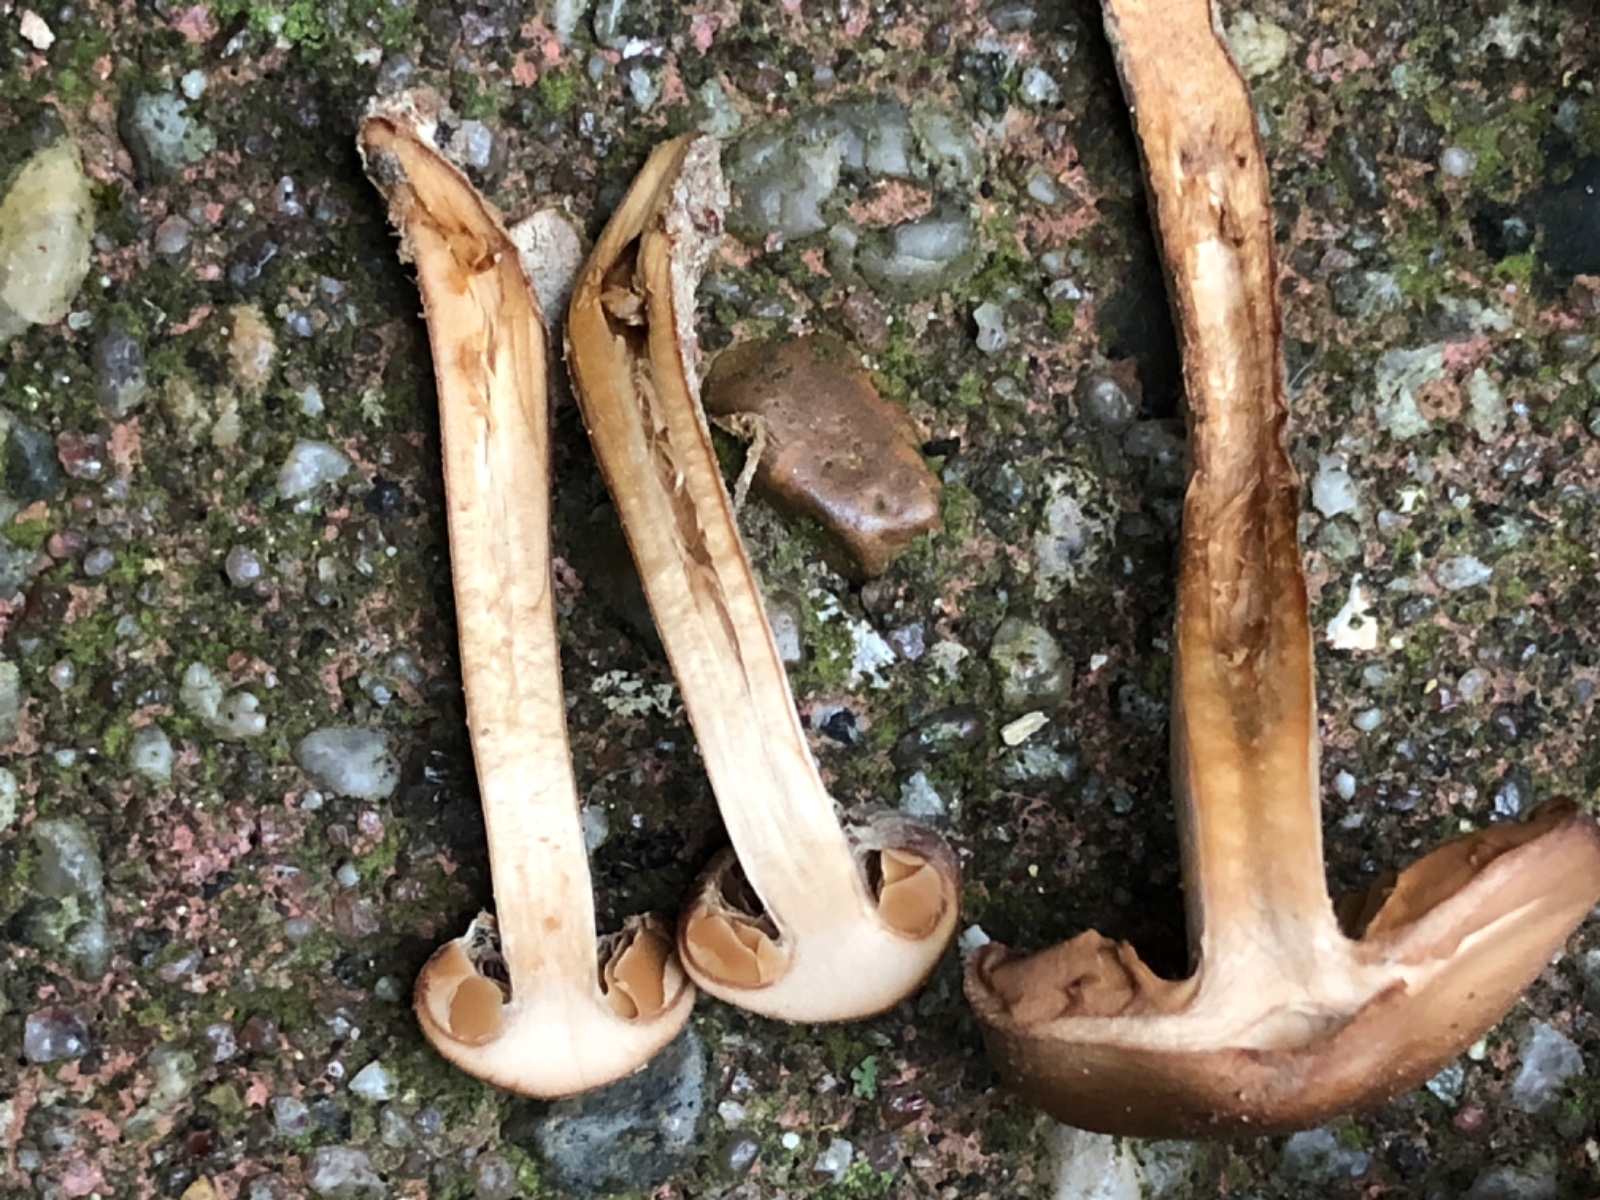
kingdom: Fungi
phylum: Basidiomycota
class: Agaricomycetes
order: Agaricales
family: Cortinariaceae
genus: Cortinarius
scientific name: Cortinarius
